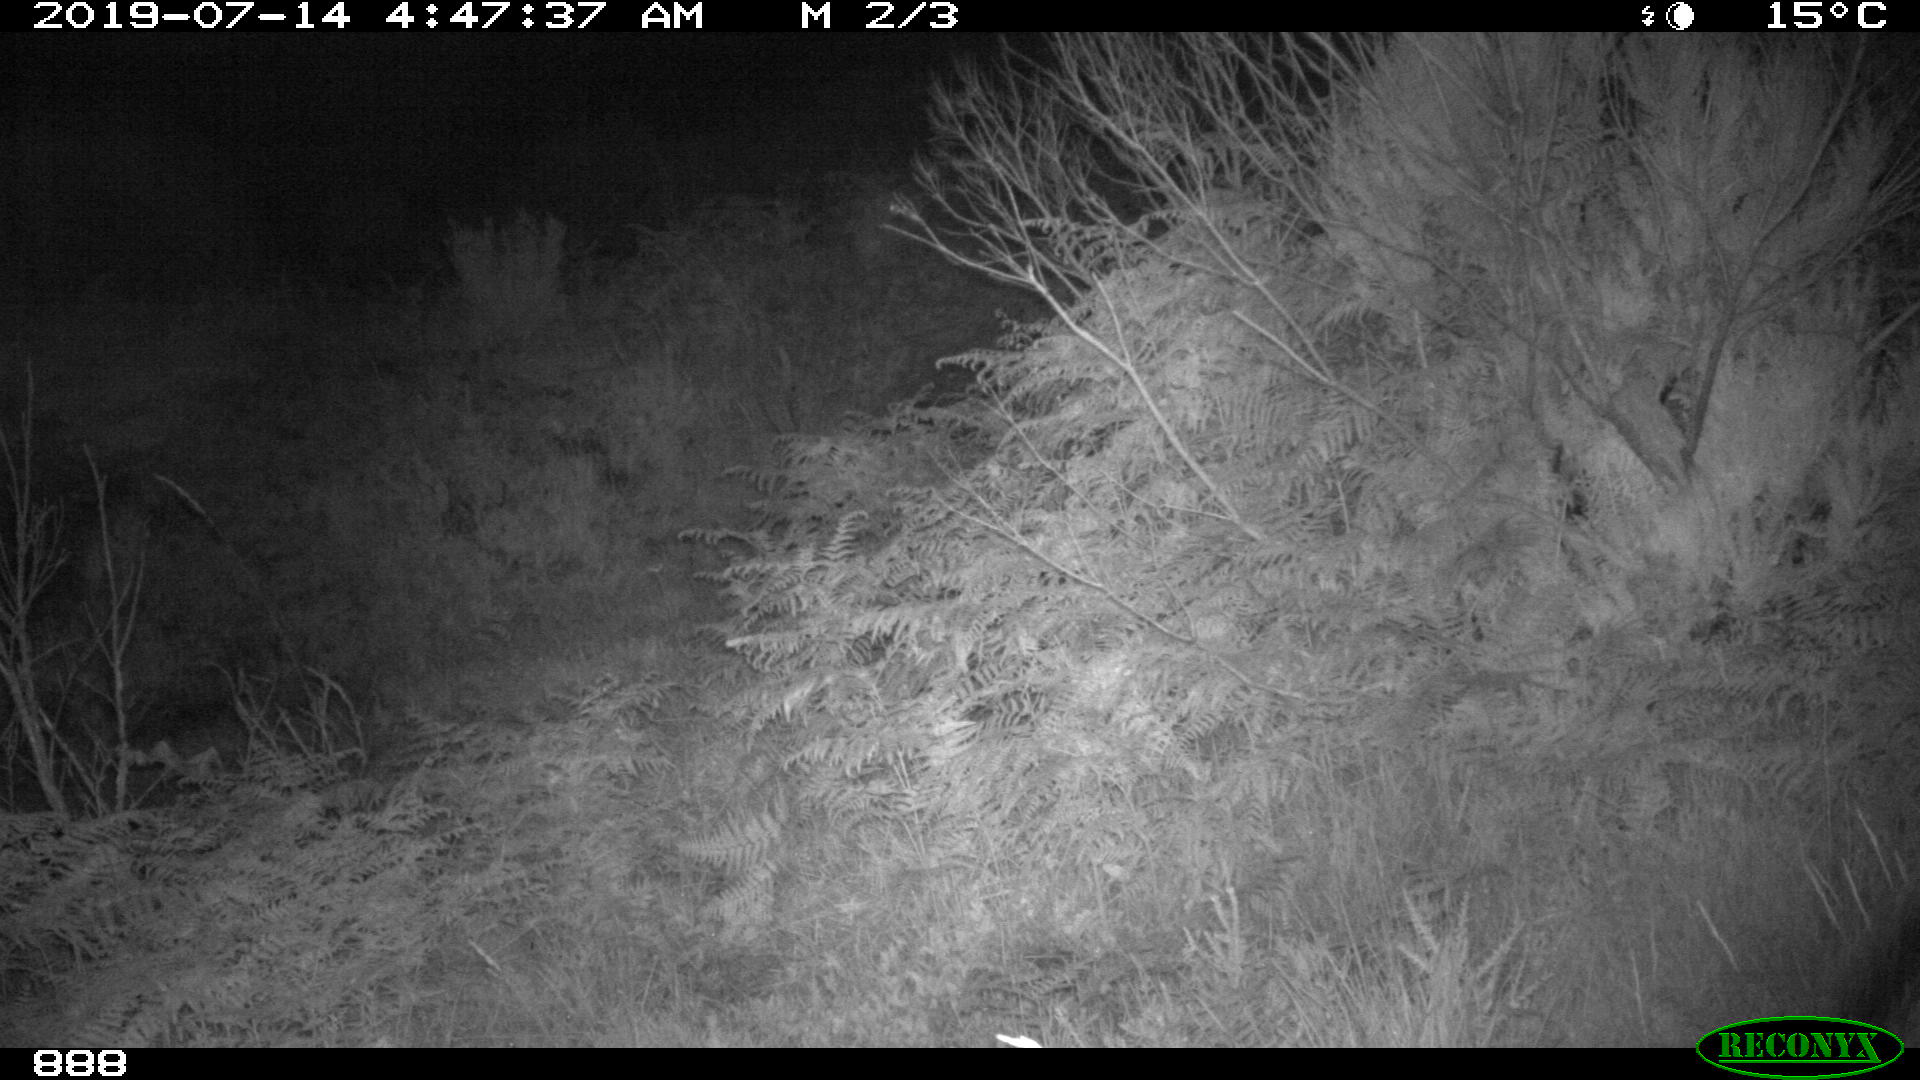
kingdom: Animalia
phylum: Chordata
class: Mammalia
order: Artiodactyla
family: Suidae
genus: Sus
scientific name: Sus scrofa
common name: Wild boar
